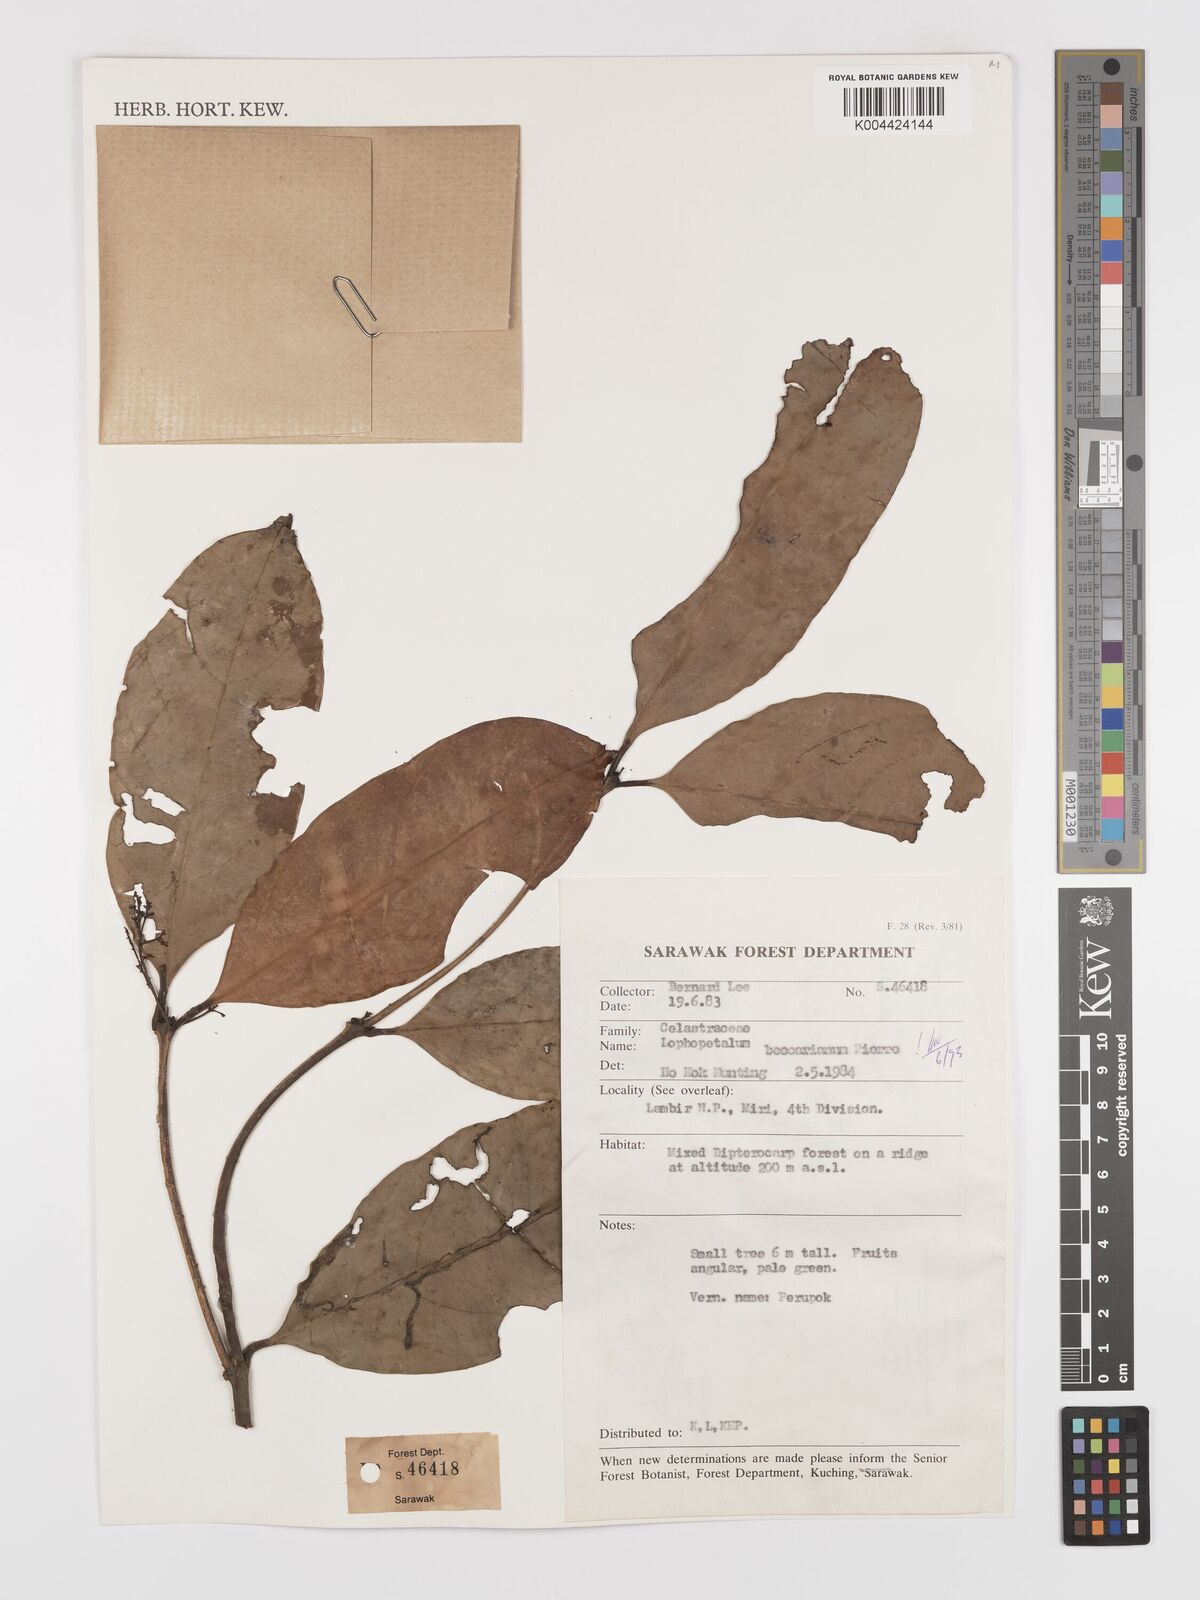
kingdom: Plantae
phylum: Tracheophyta
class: Magnoliopsida
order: Celastrales
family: Celastraceae
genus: Lophopetalum
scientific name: Lophopetalum beccarianum
